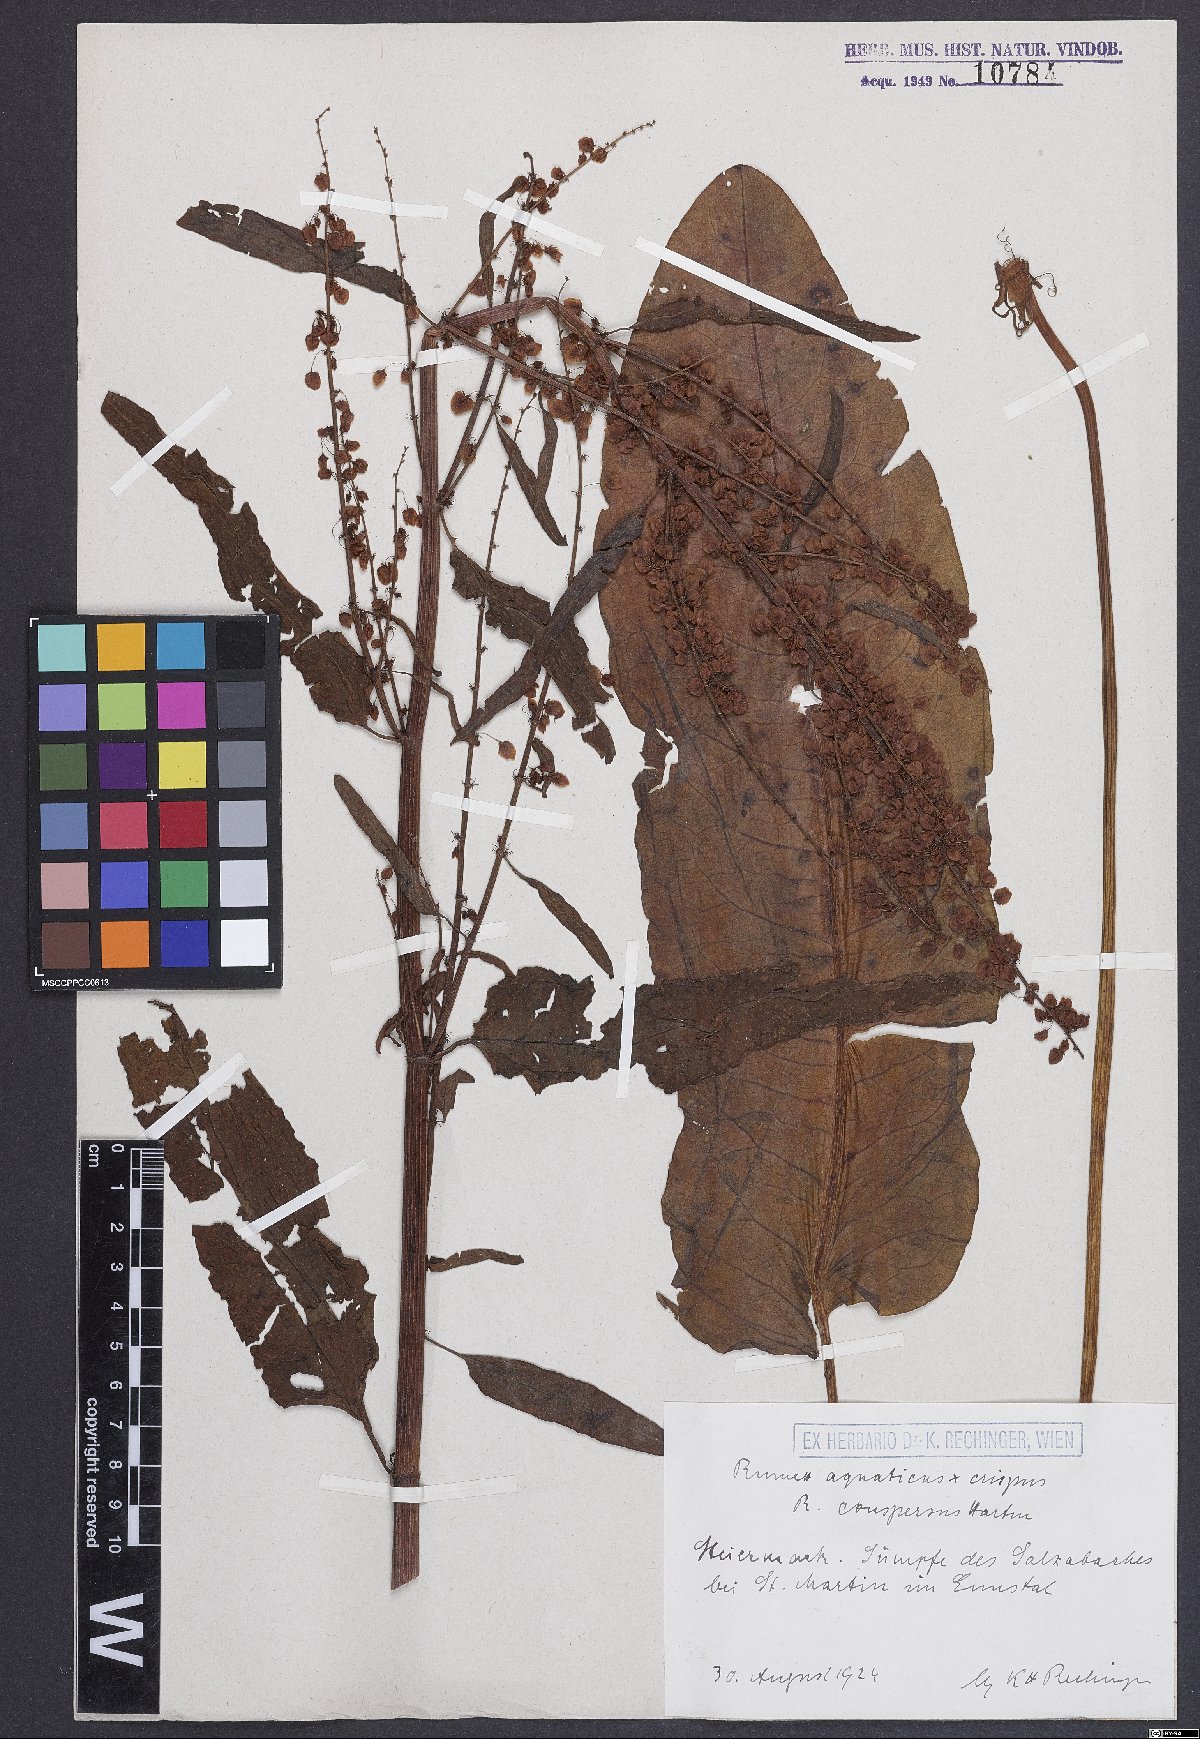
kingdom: Plantae
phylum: Tracheophyta
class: Magnoliopsida
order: Caryophyllales
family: Polygonaceae
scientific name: Polygonaceae
